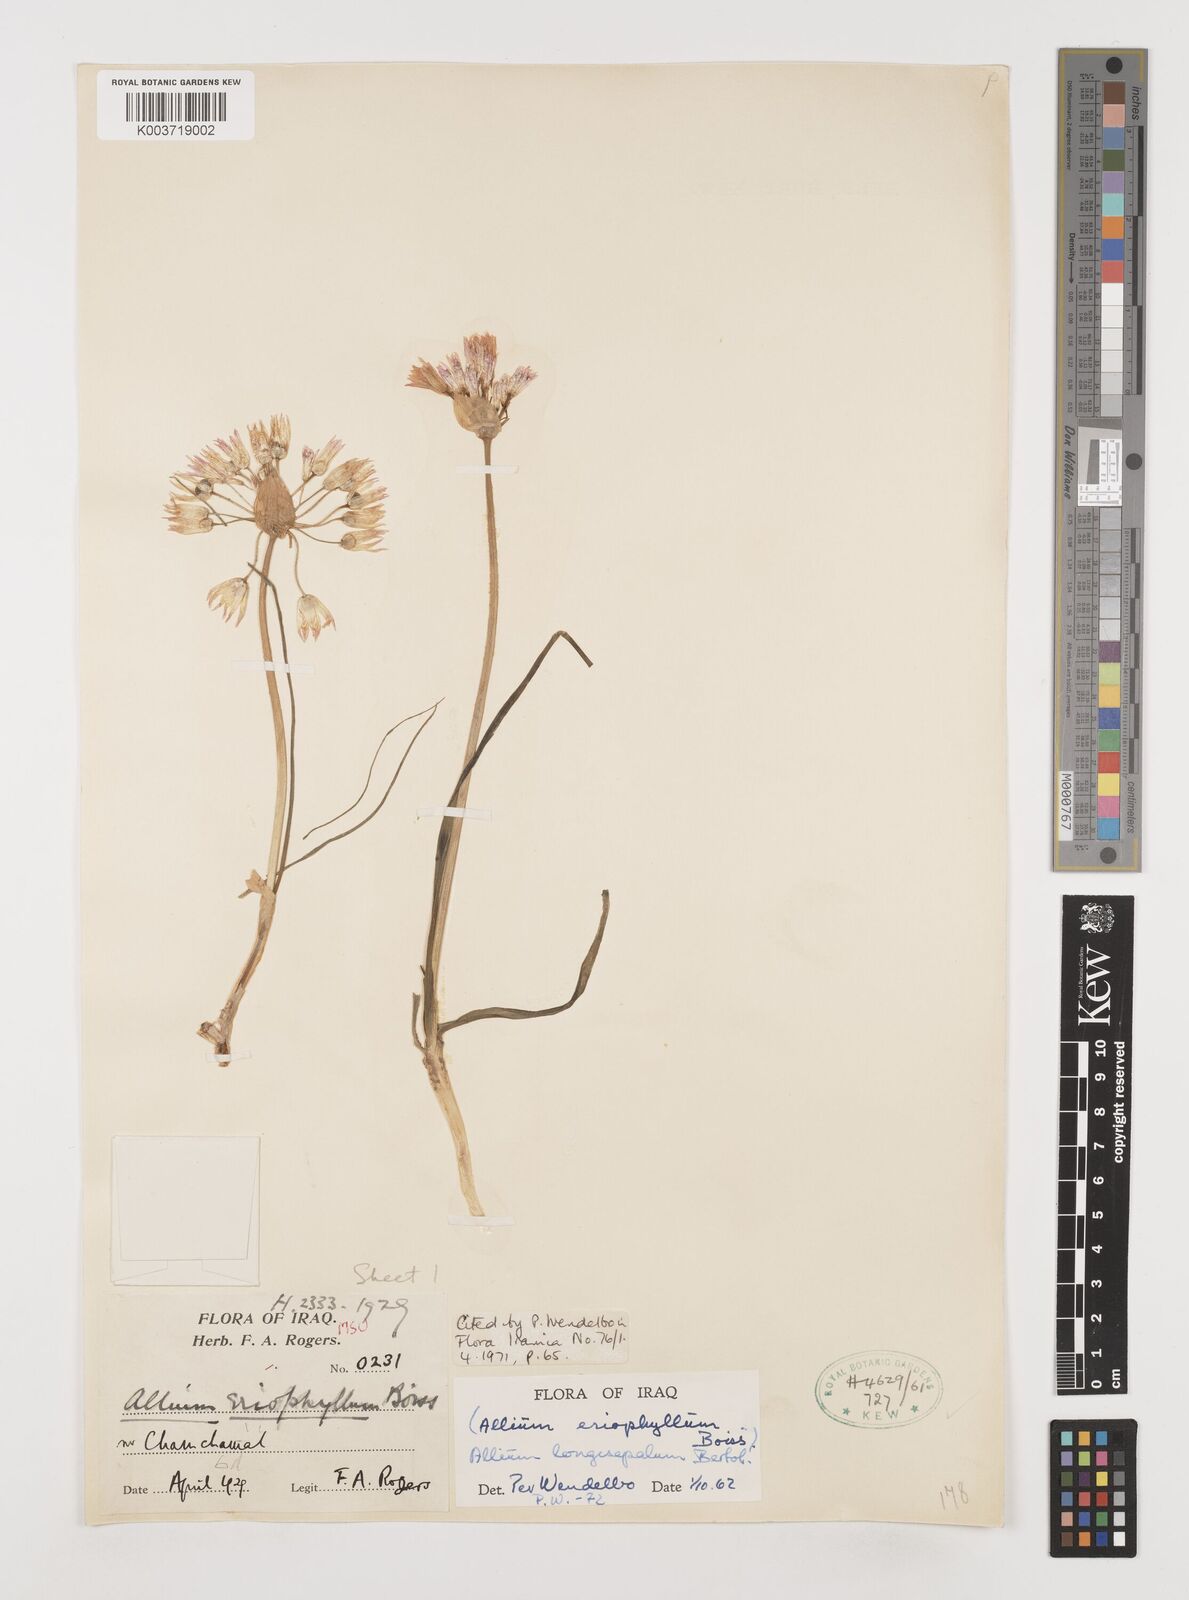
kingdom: Plantae
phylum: Tracheophyta
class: Liliopsida
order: Asparagales
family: Amaryllidaceae
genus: Allium
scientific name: Allium longisepalum
